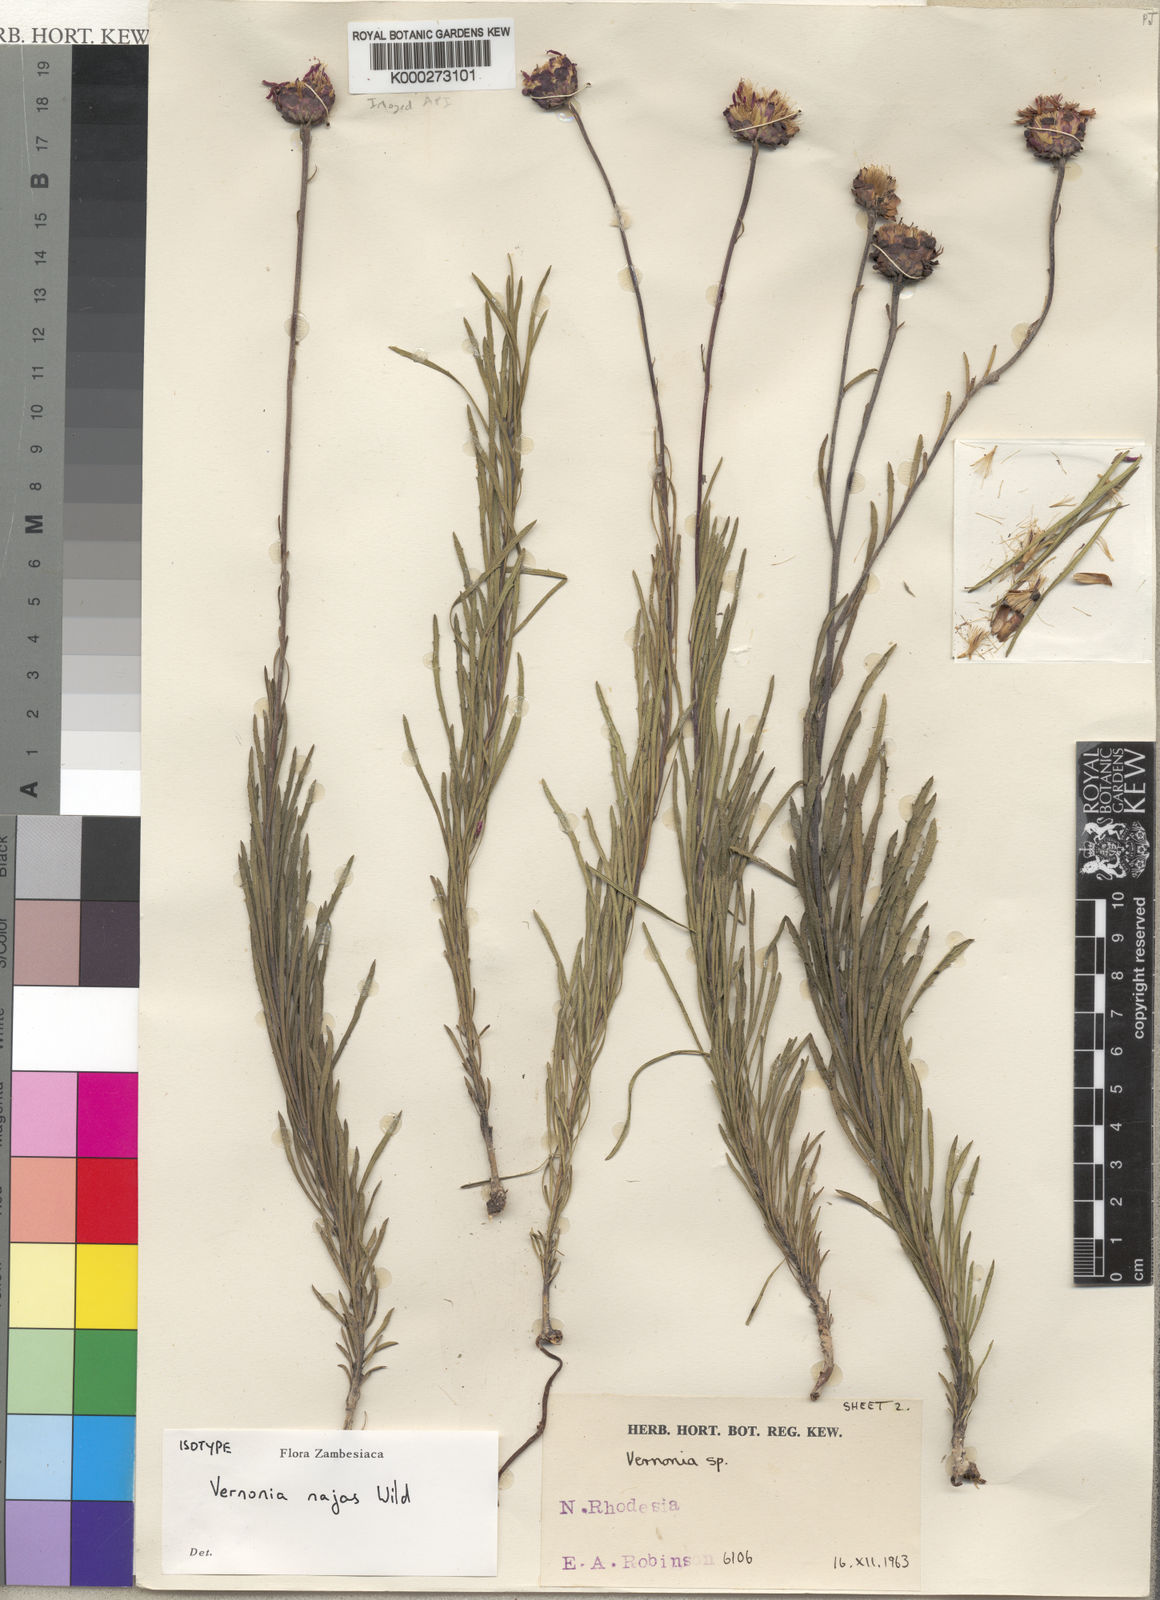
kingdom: Plantae
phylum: Tracheophyta
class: Magnoliopsida
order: Asterales
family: Asteraceae
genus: Vernonia
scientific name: Vernonia najas
